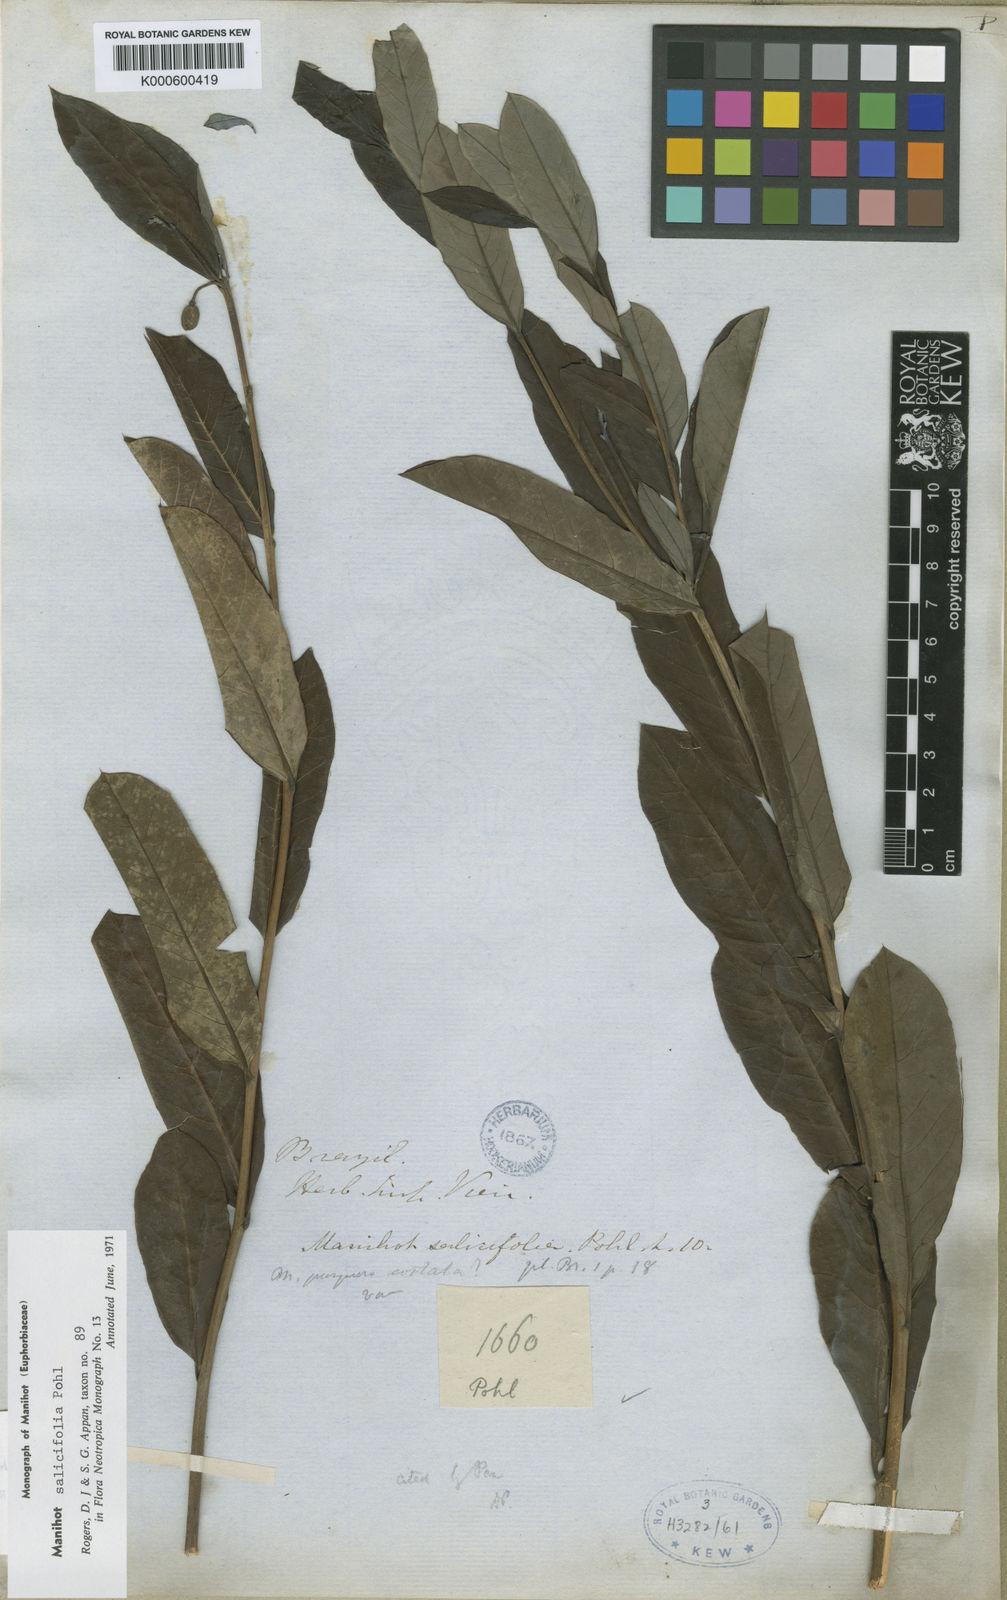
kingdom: Plantae
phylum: Tracheophyta
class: Magnoliopsida
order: Malpighiales
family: Euphorbiaceae
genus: Manihot
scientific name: Manihot salicifolia
